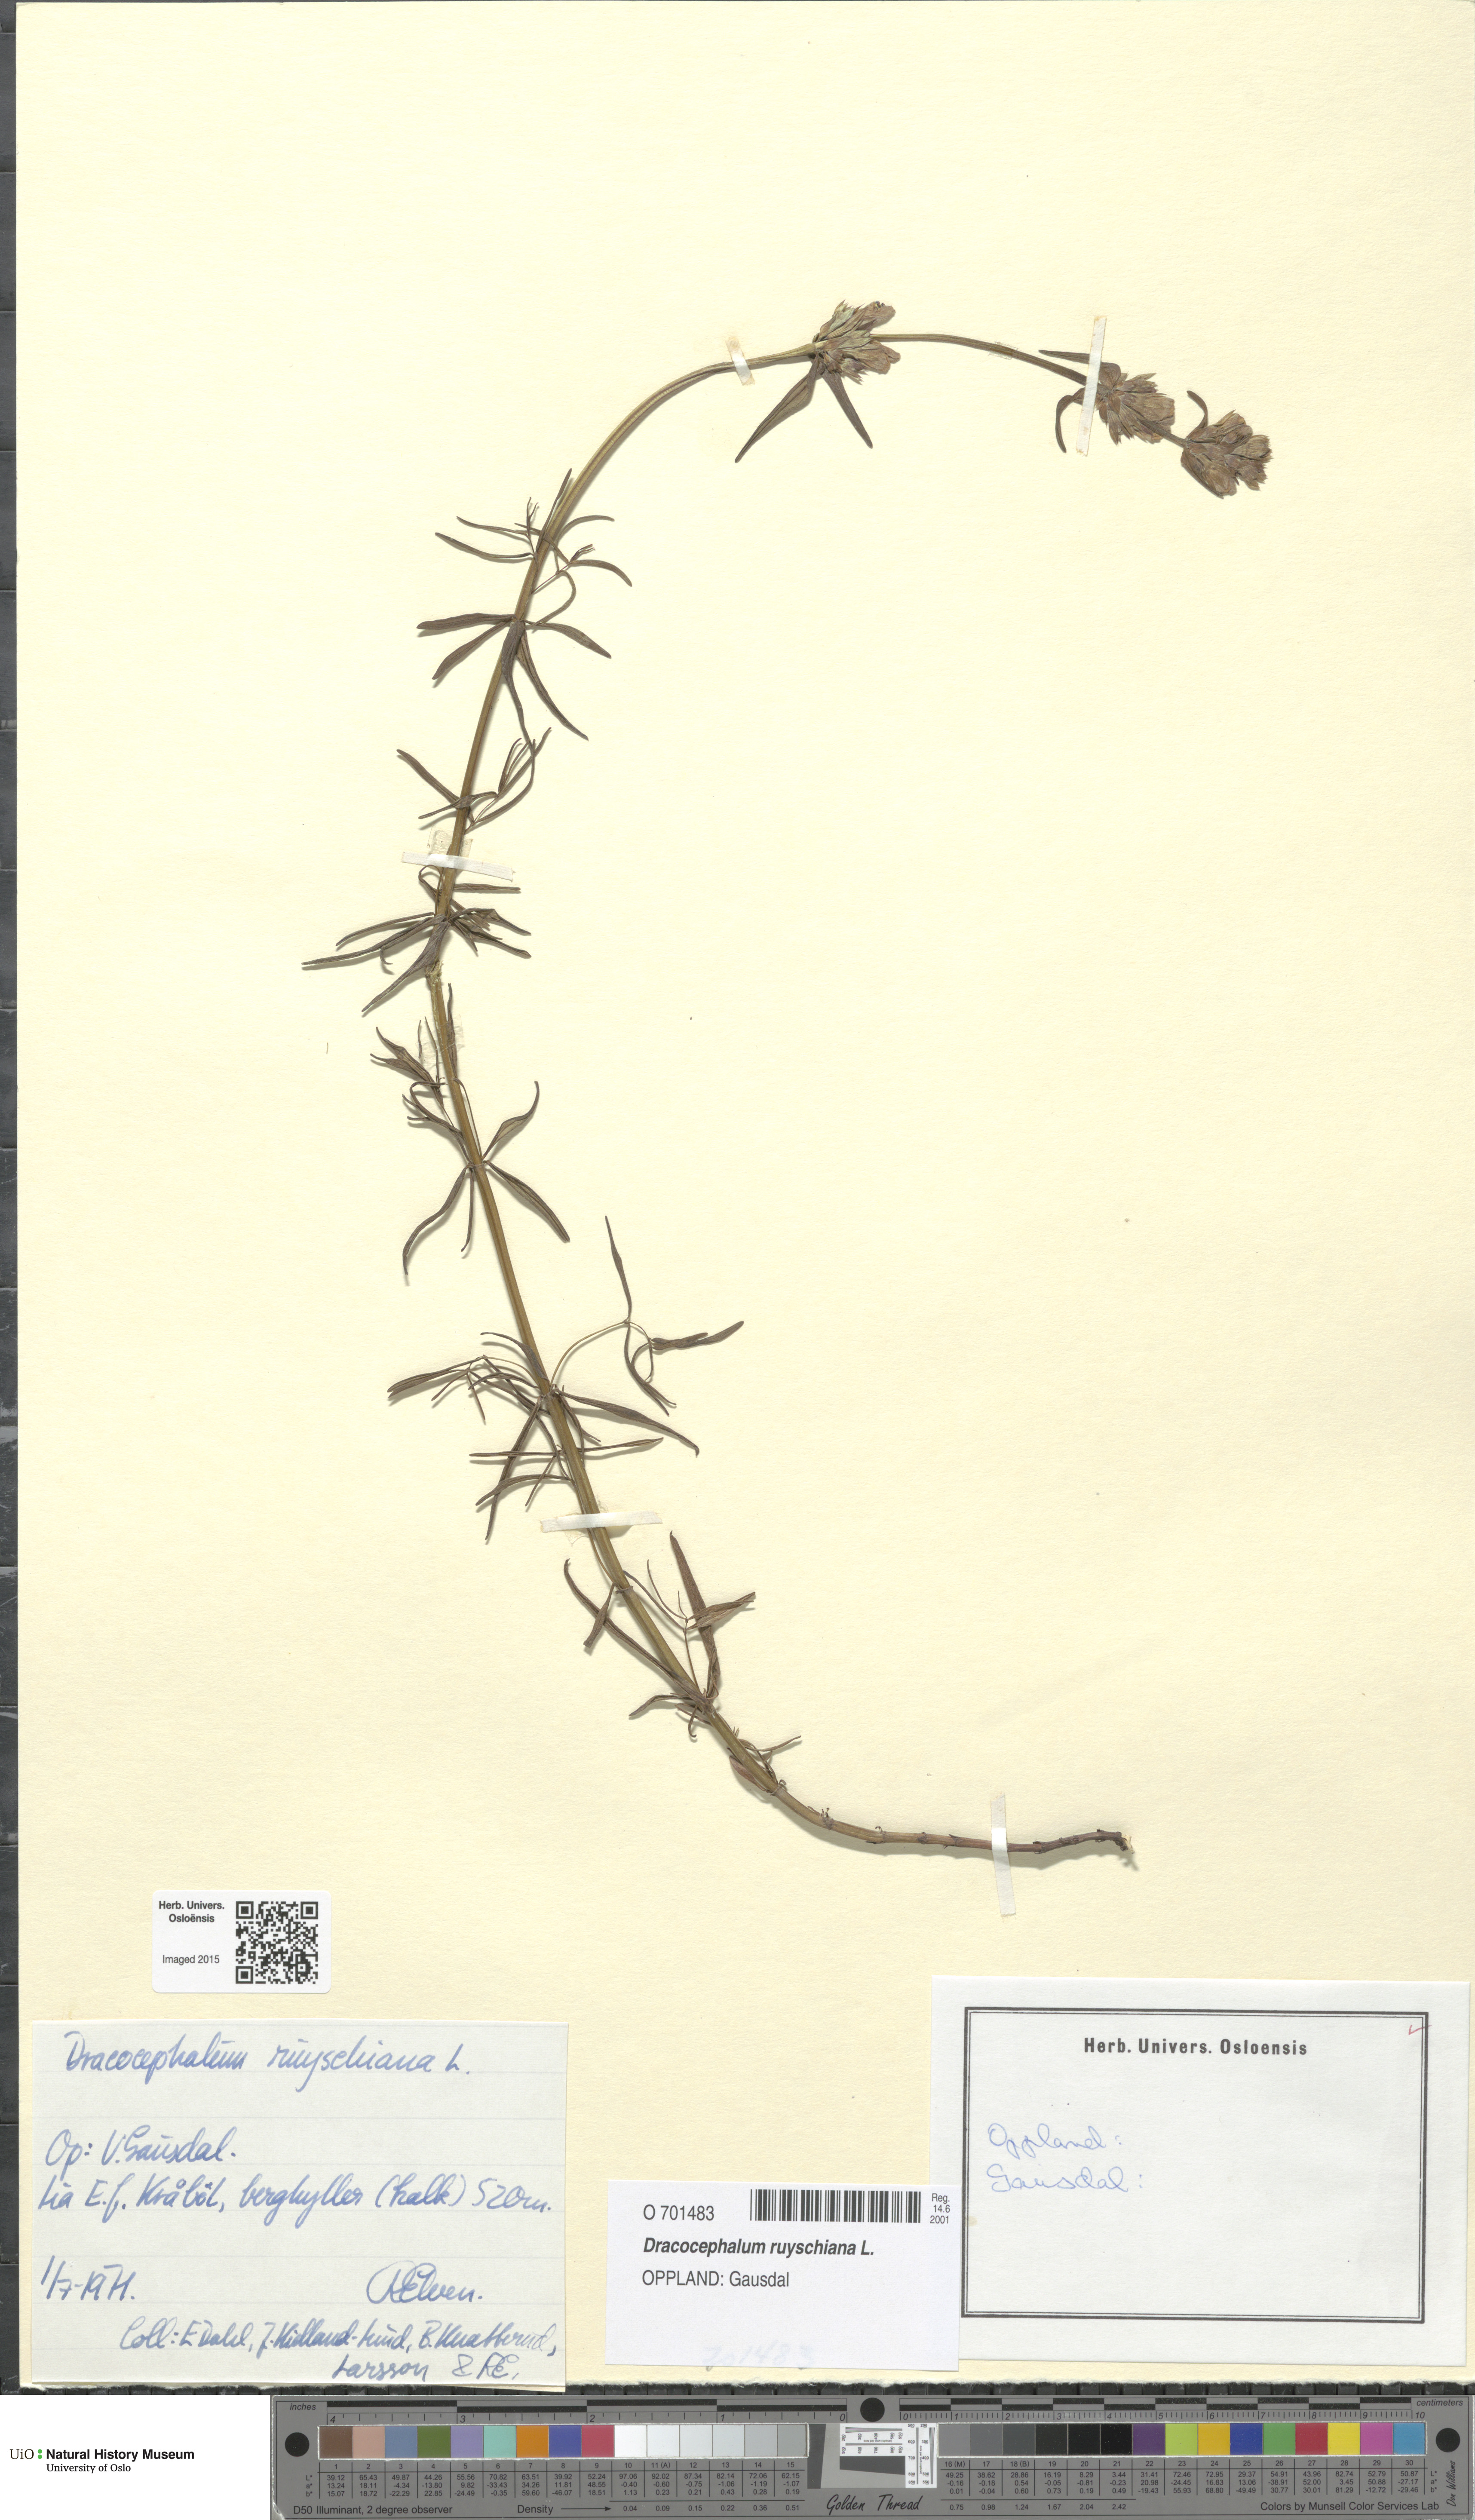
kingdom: Plantae
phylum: Tracheophyta
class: Magnoliopsida
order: Lamiales
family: Lamiaceae
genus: Dracocephalum
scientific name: Dracocephalum ruyschiana
